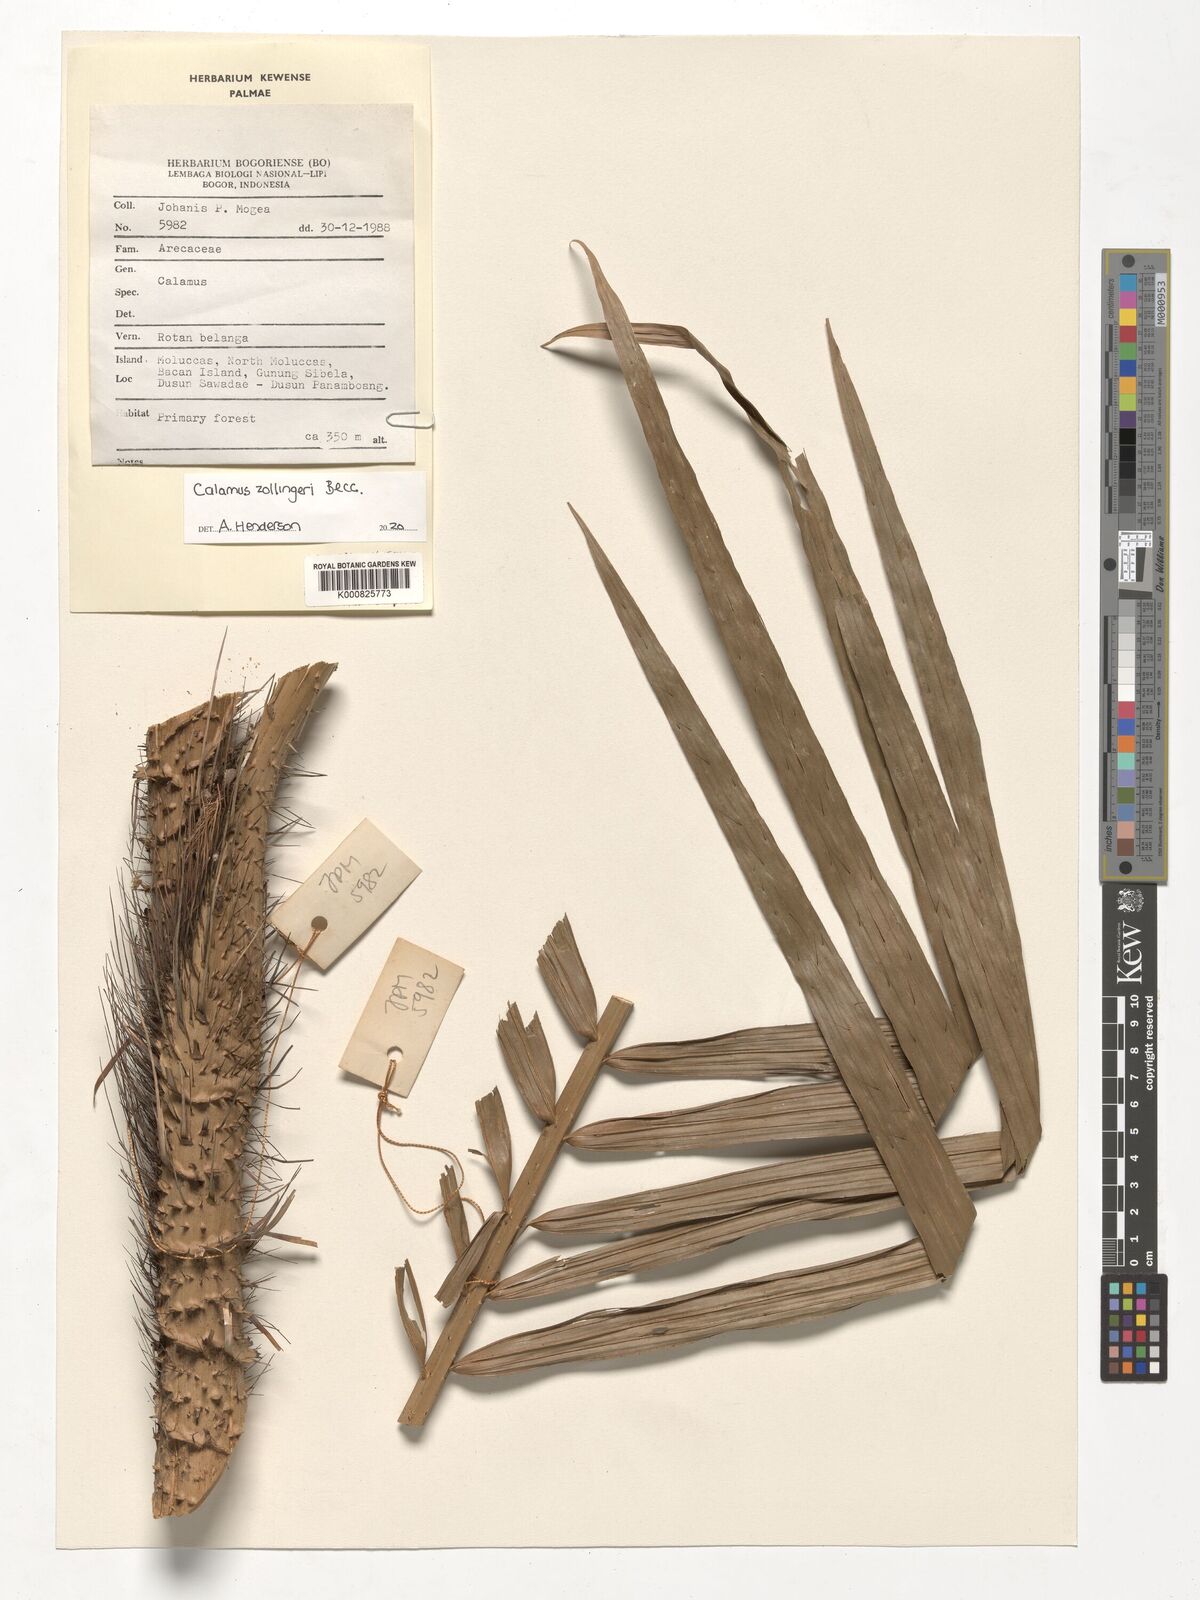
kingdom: Plantae
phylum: Tracheophyta
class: Liliopsida
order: Arecales
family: Arecaceae
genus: Calamus
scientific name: Calamus zollingeri
